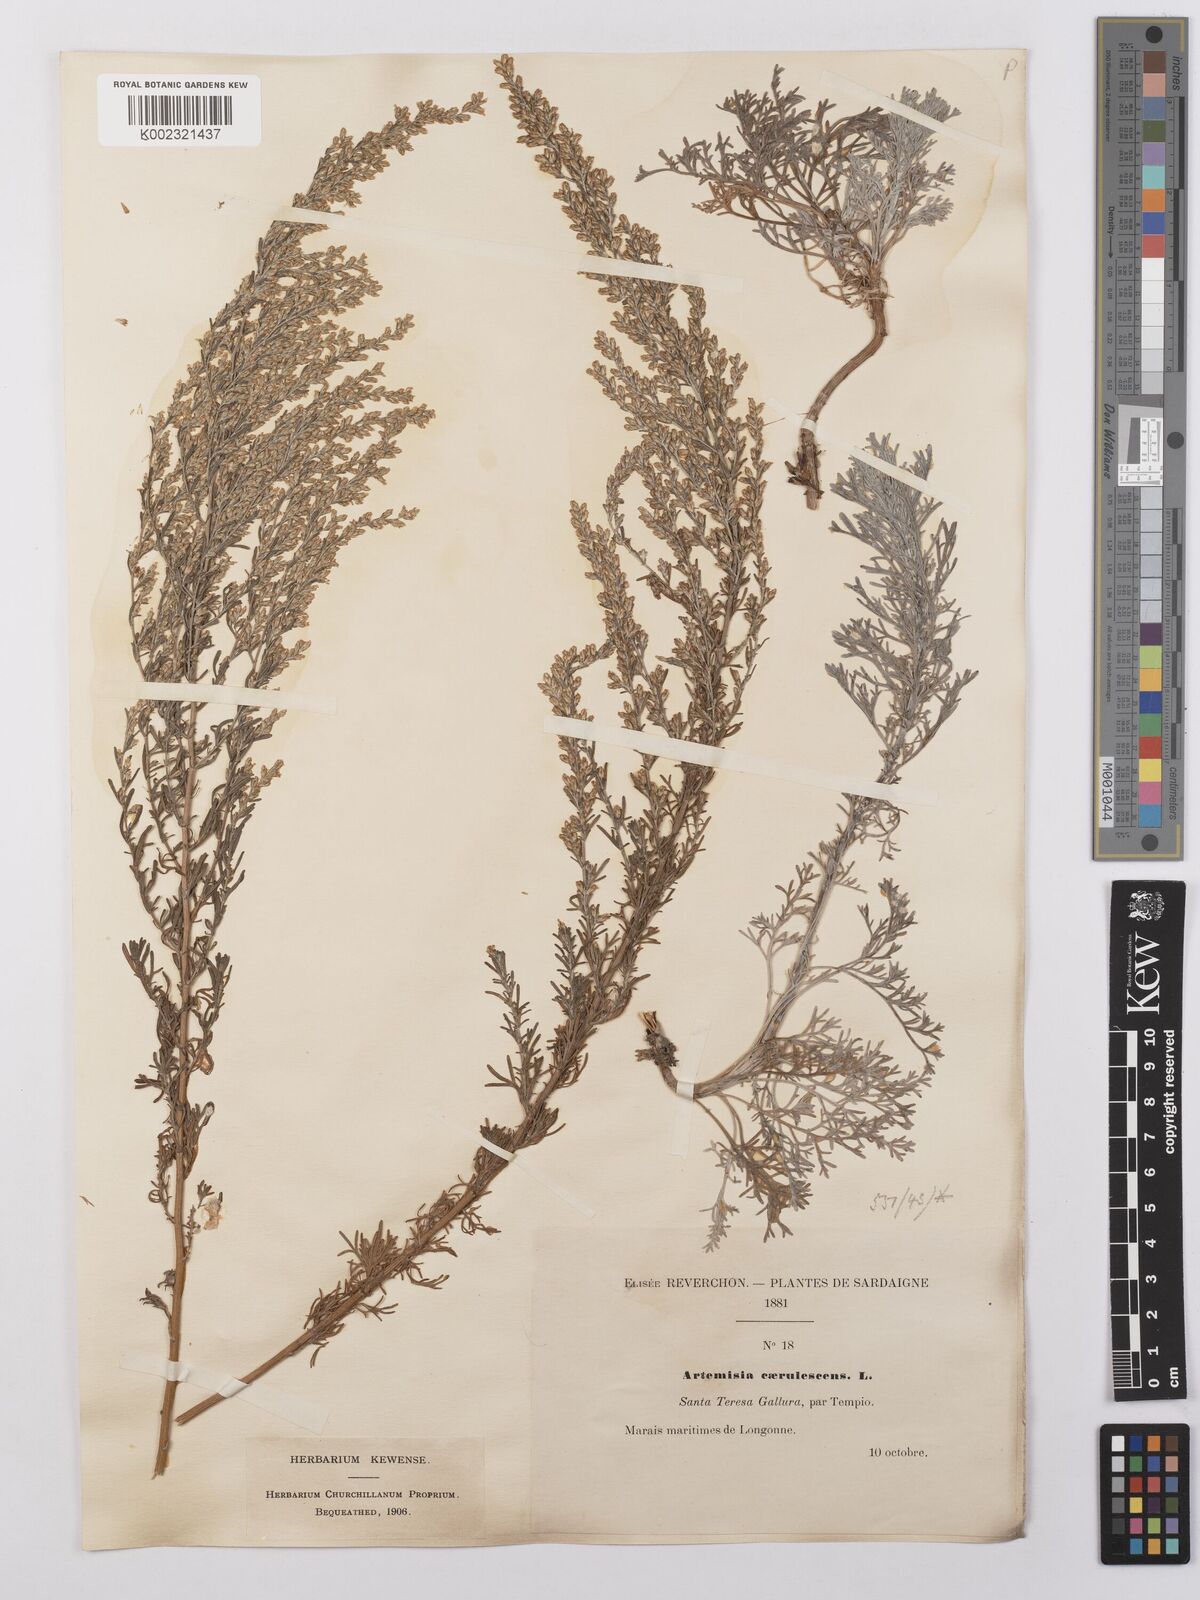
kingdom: Plantae
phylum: Tracheophyta
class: Magnoliopsida
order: Asterales
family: Asteraceae
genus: Artemisia
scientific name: Artemisia caerulescens
